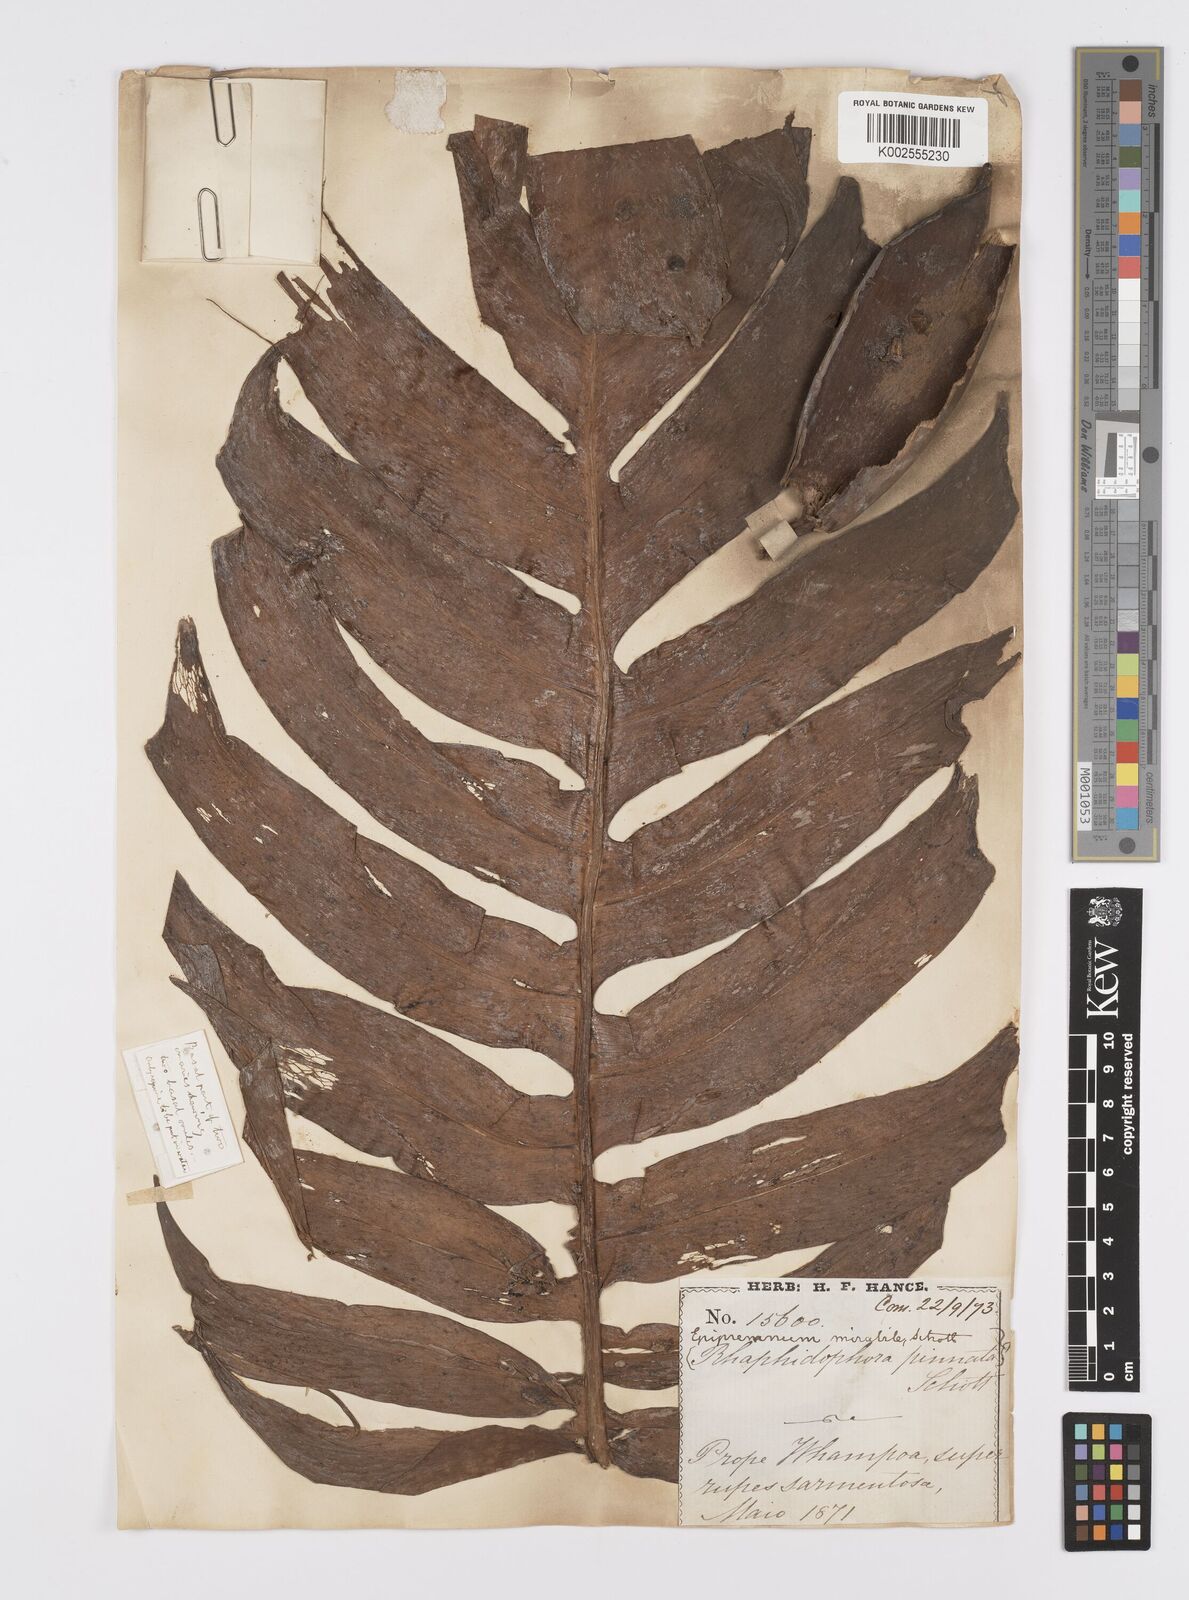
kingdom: Plantae
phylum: Tracheophyta
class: Liliopsida
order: Alismatales
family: Araceae
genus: Epipremnum
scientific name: Epipremnum pinnatum
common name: Centipede tongavine
